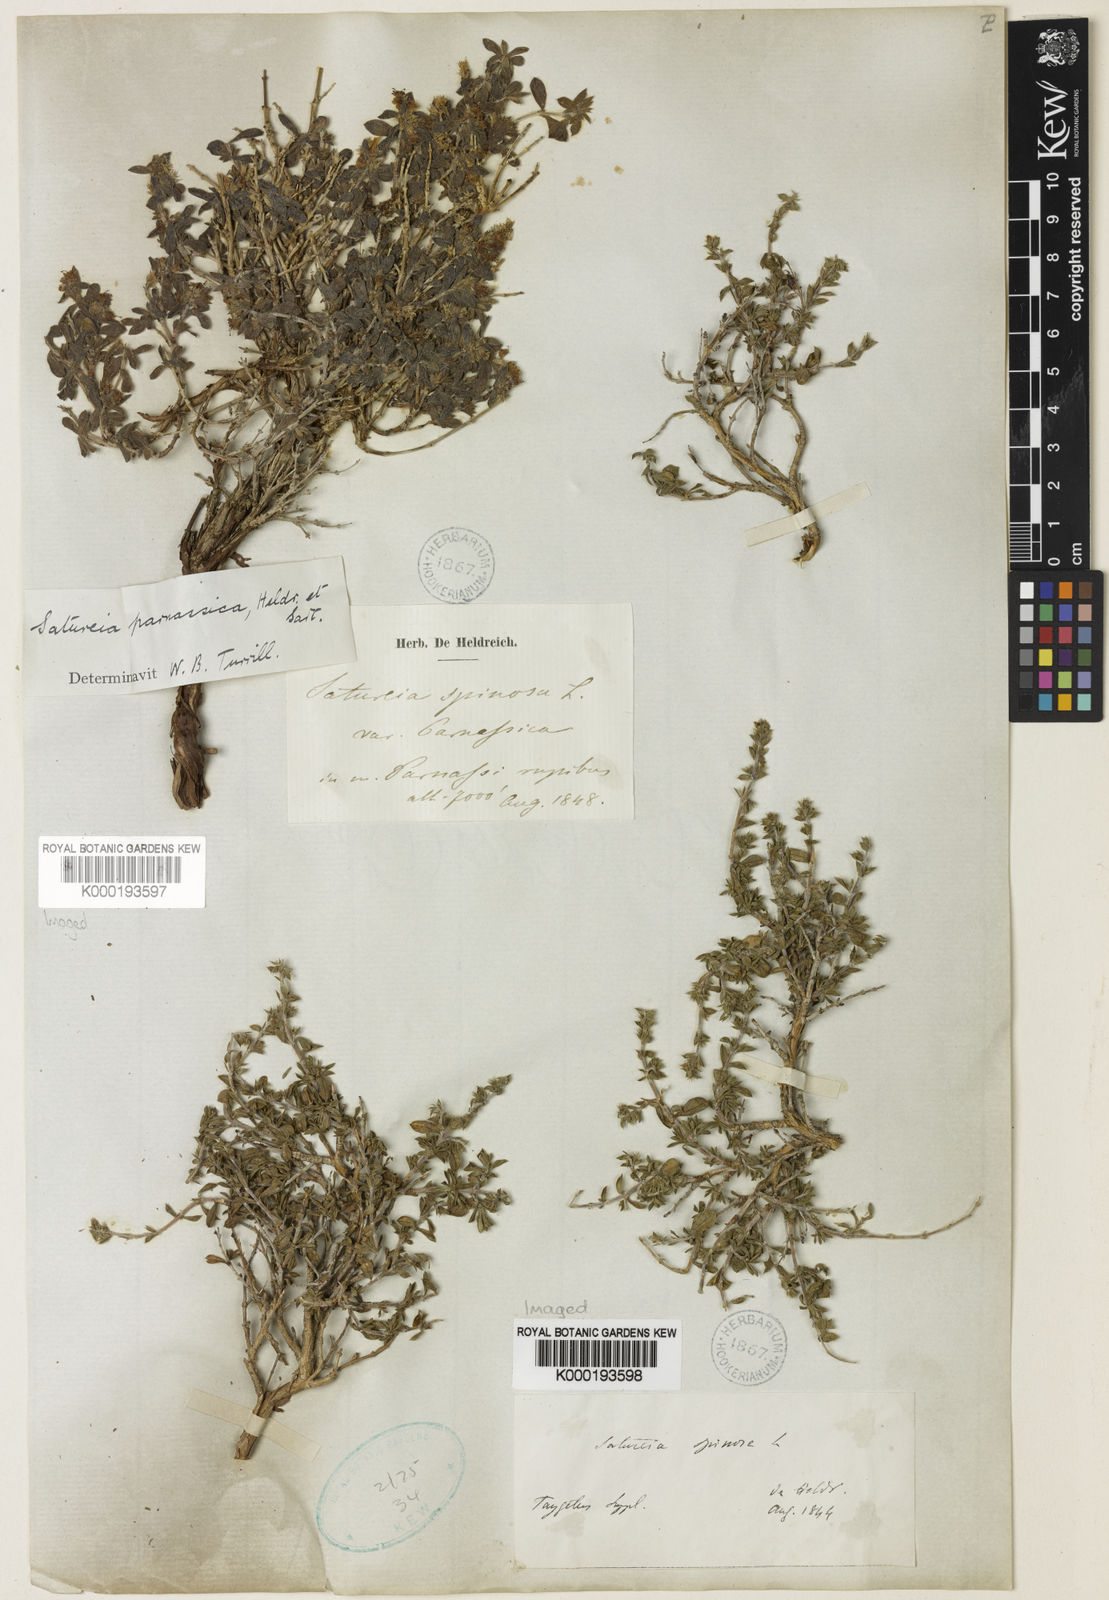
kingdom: Plantae
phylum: Tracheophyta
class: Magnoliopsida
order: Lamiales
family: Lamiaceae
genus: Satureja
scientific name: Satureja parnassica
